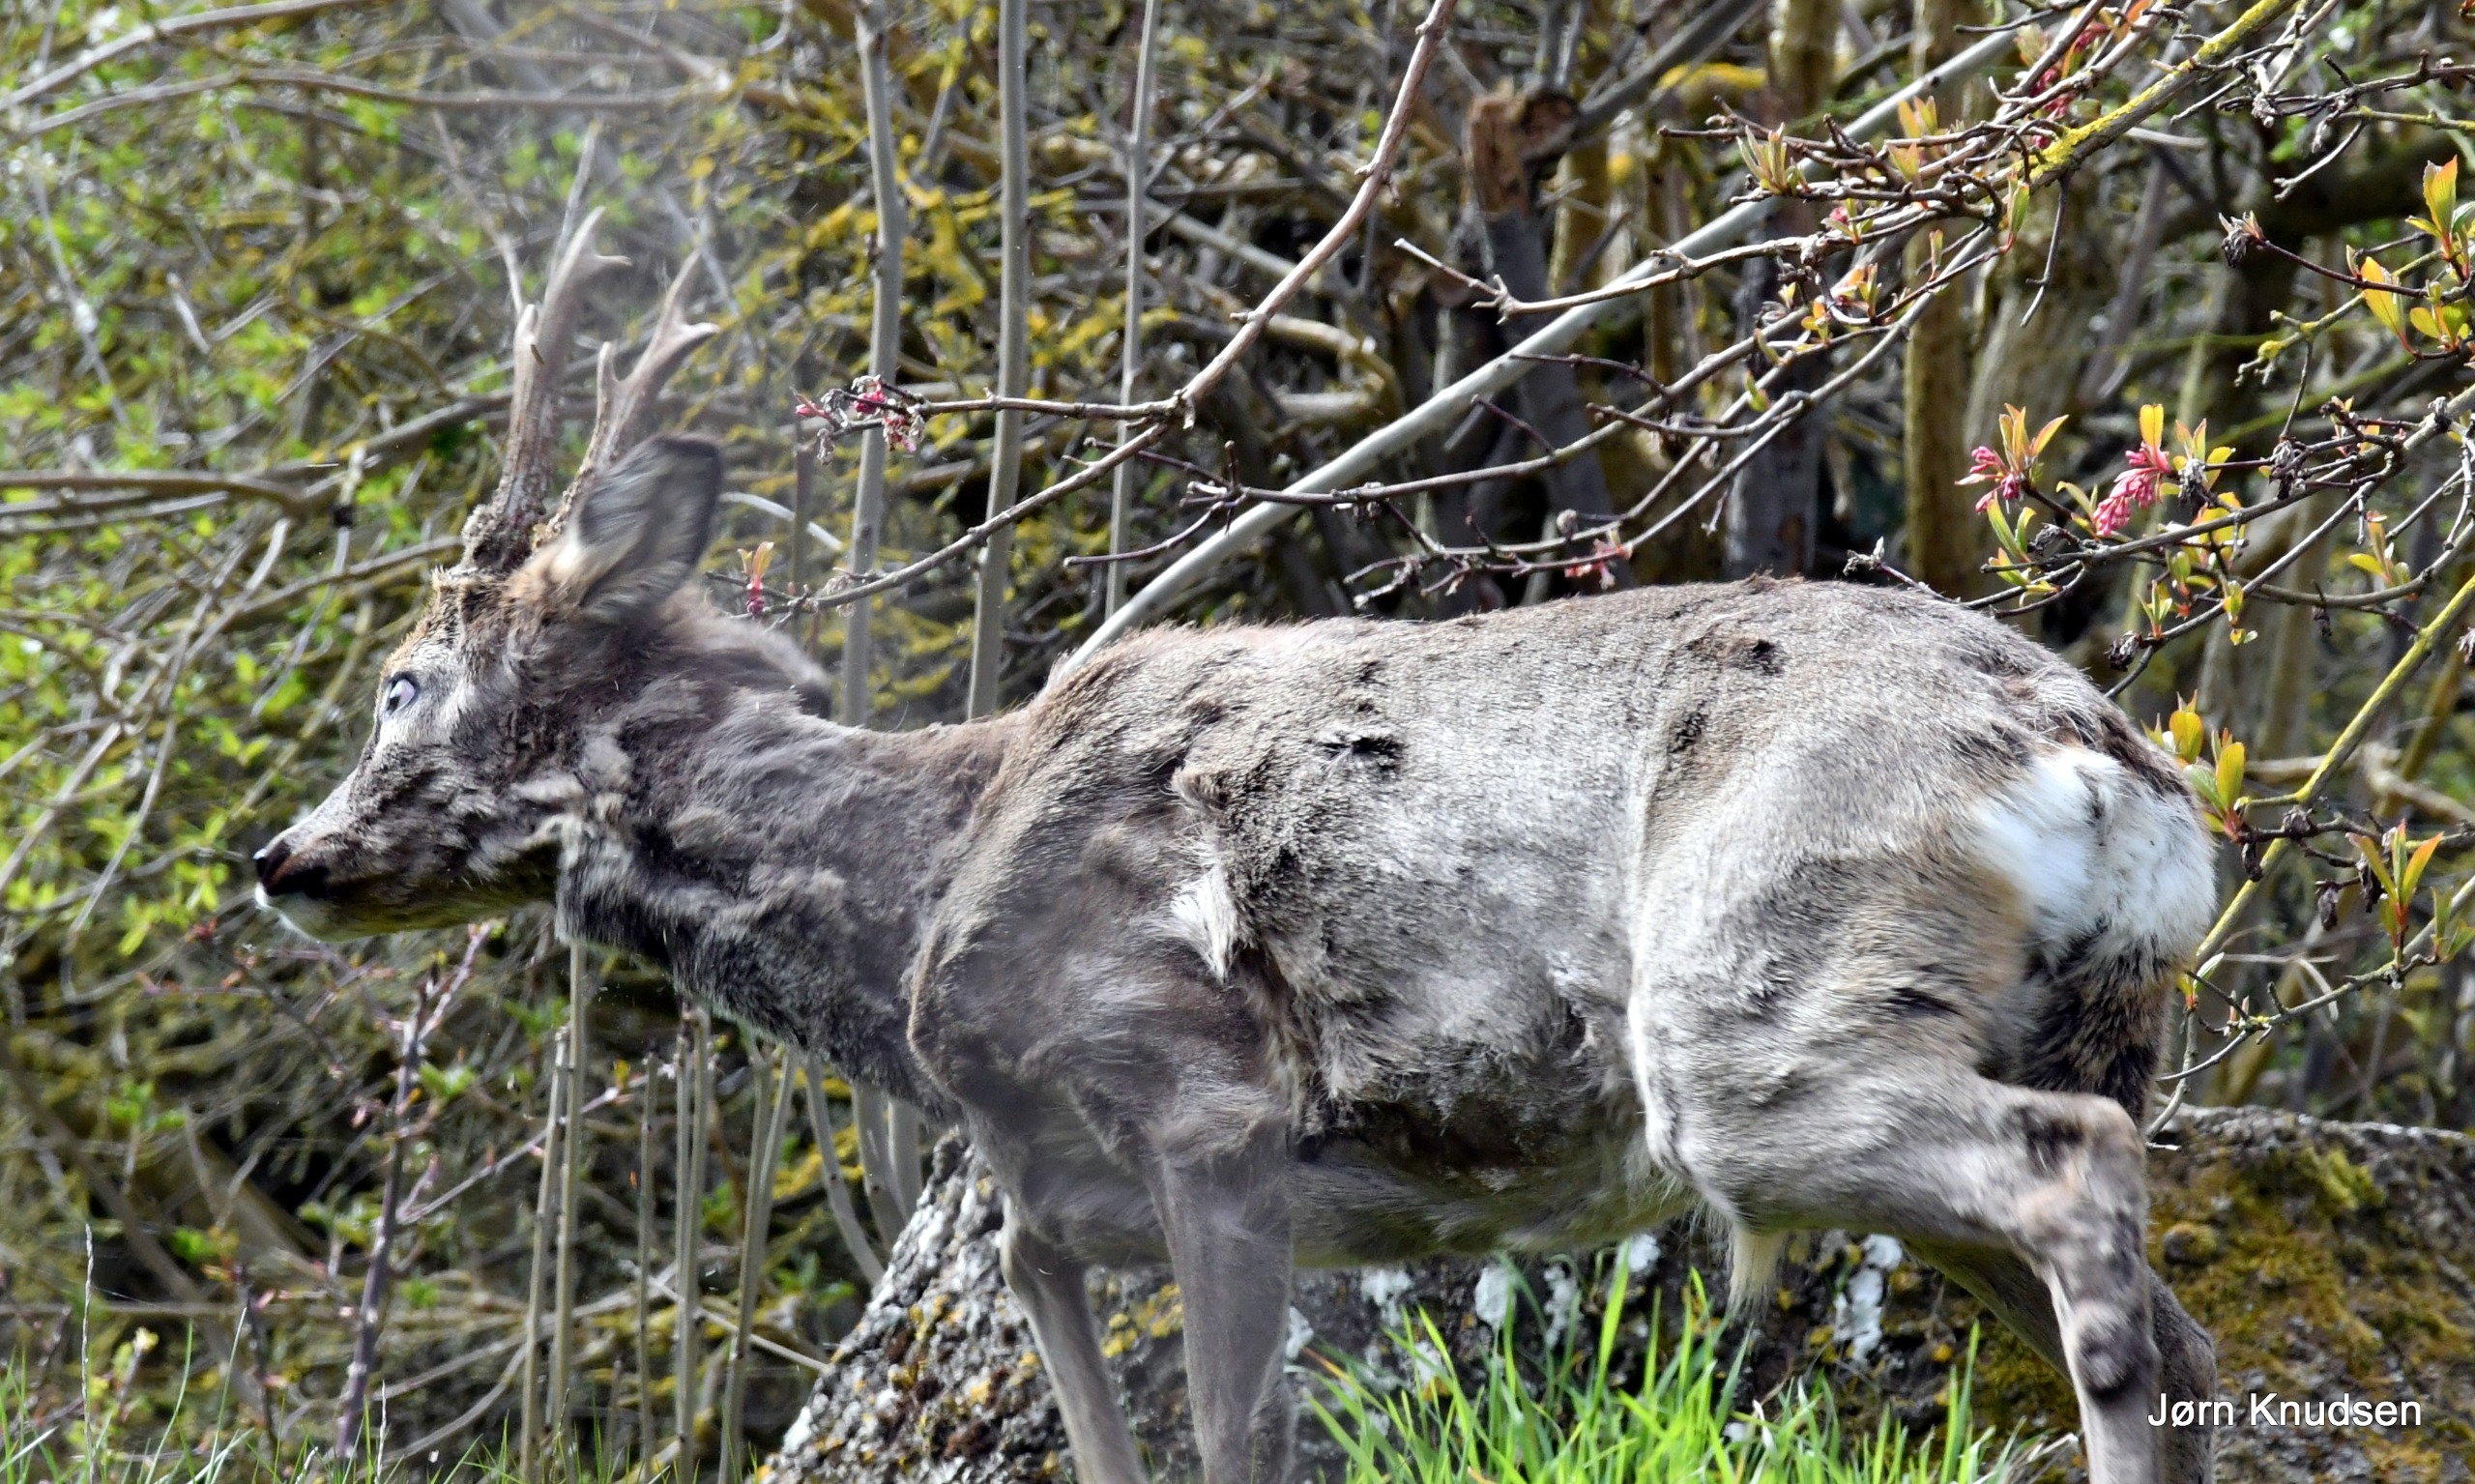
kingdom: Animalia
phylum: Chordata
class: Mammalia
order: Artiodactyla
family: Cervidae
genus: Capreolus
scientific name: Capreolus capreolus
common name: Rådyr
